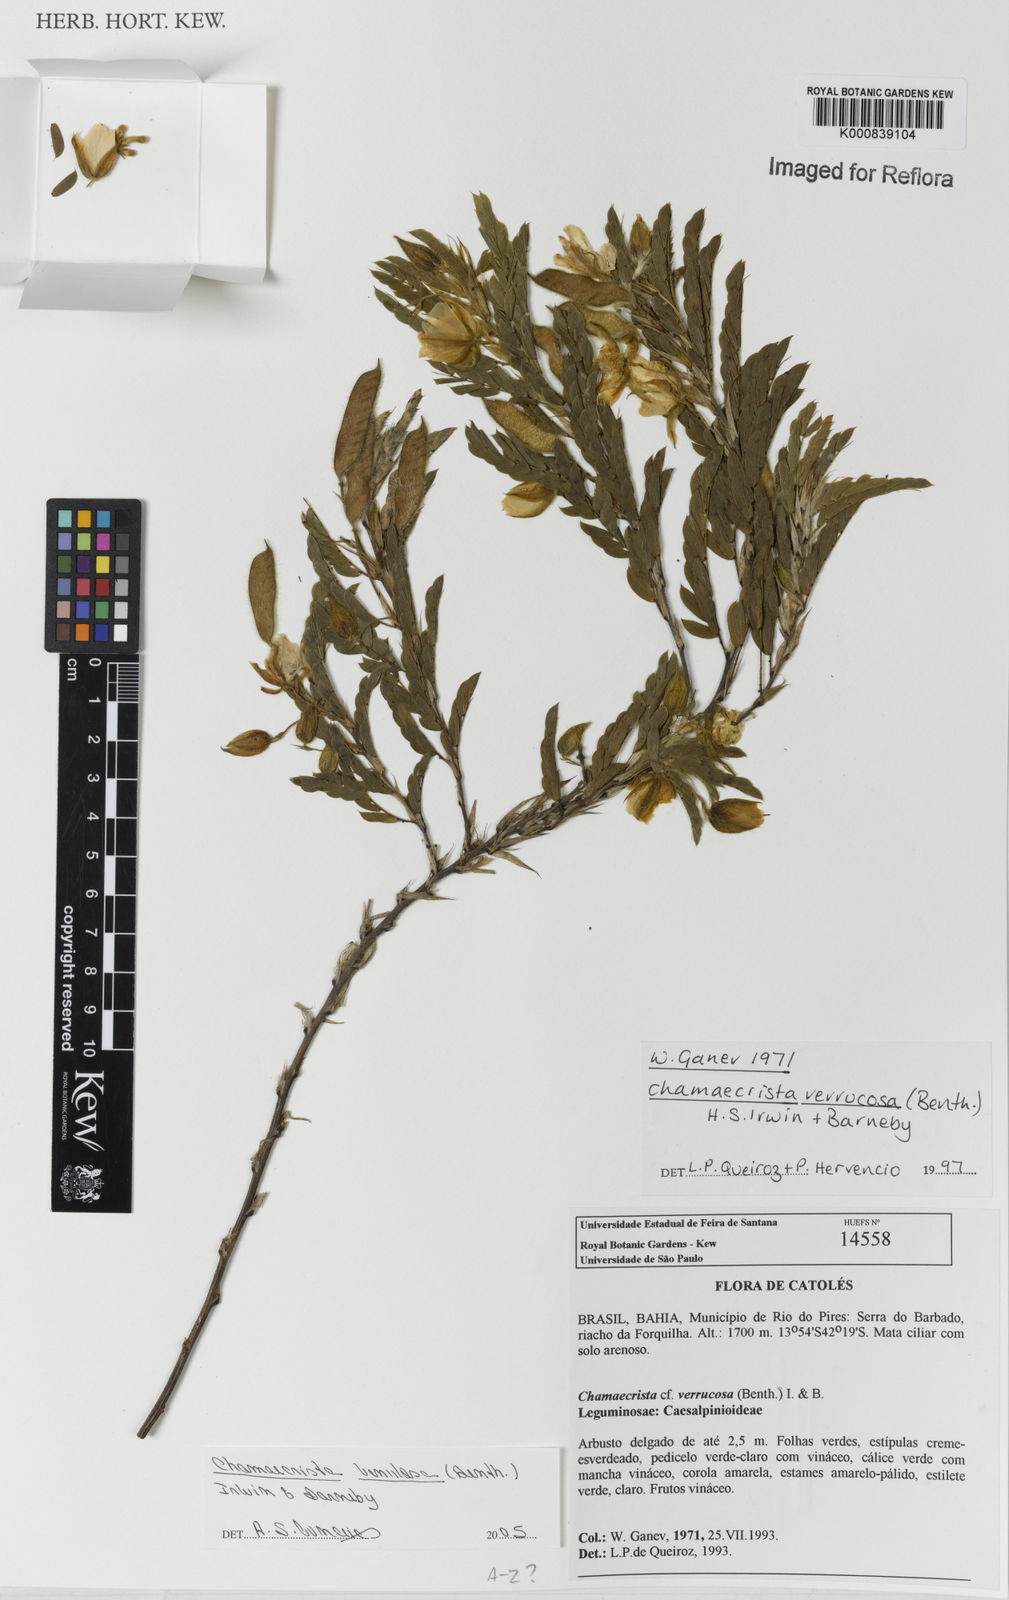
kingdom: Plantae
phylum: Tracheophyta
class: Magnoliopsida
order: Fabales
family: Fabaceae
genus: Chamaecrista
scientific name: Chamaecrista venulosa
